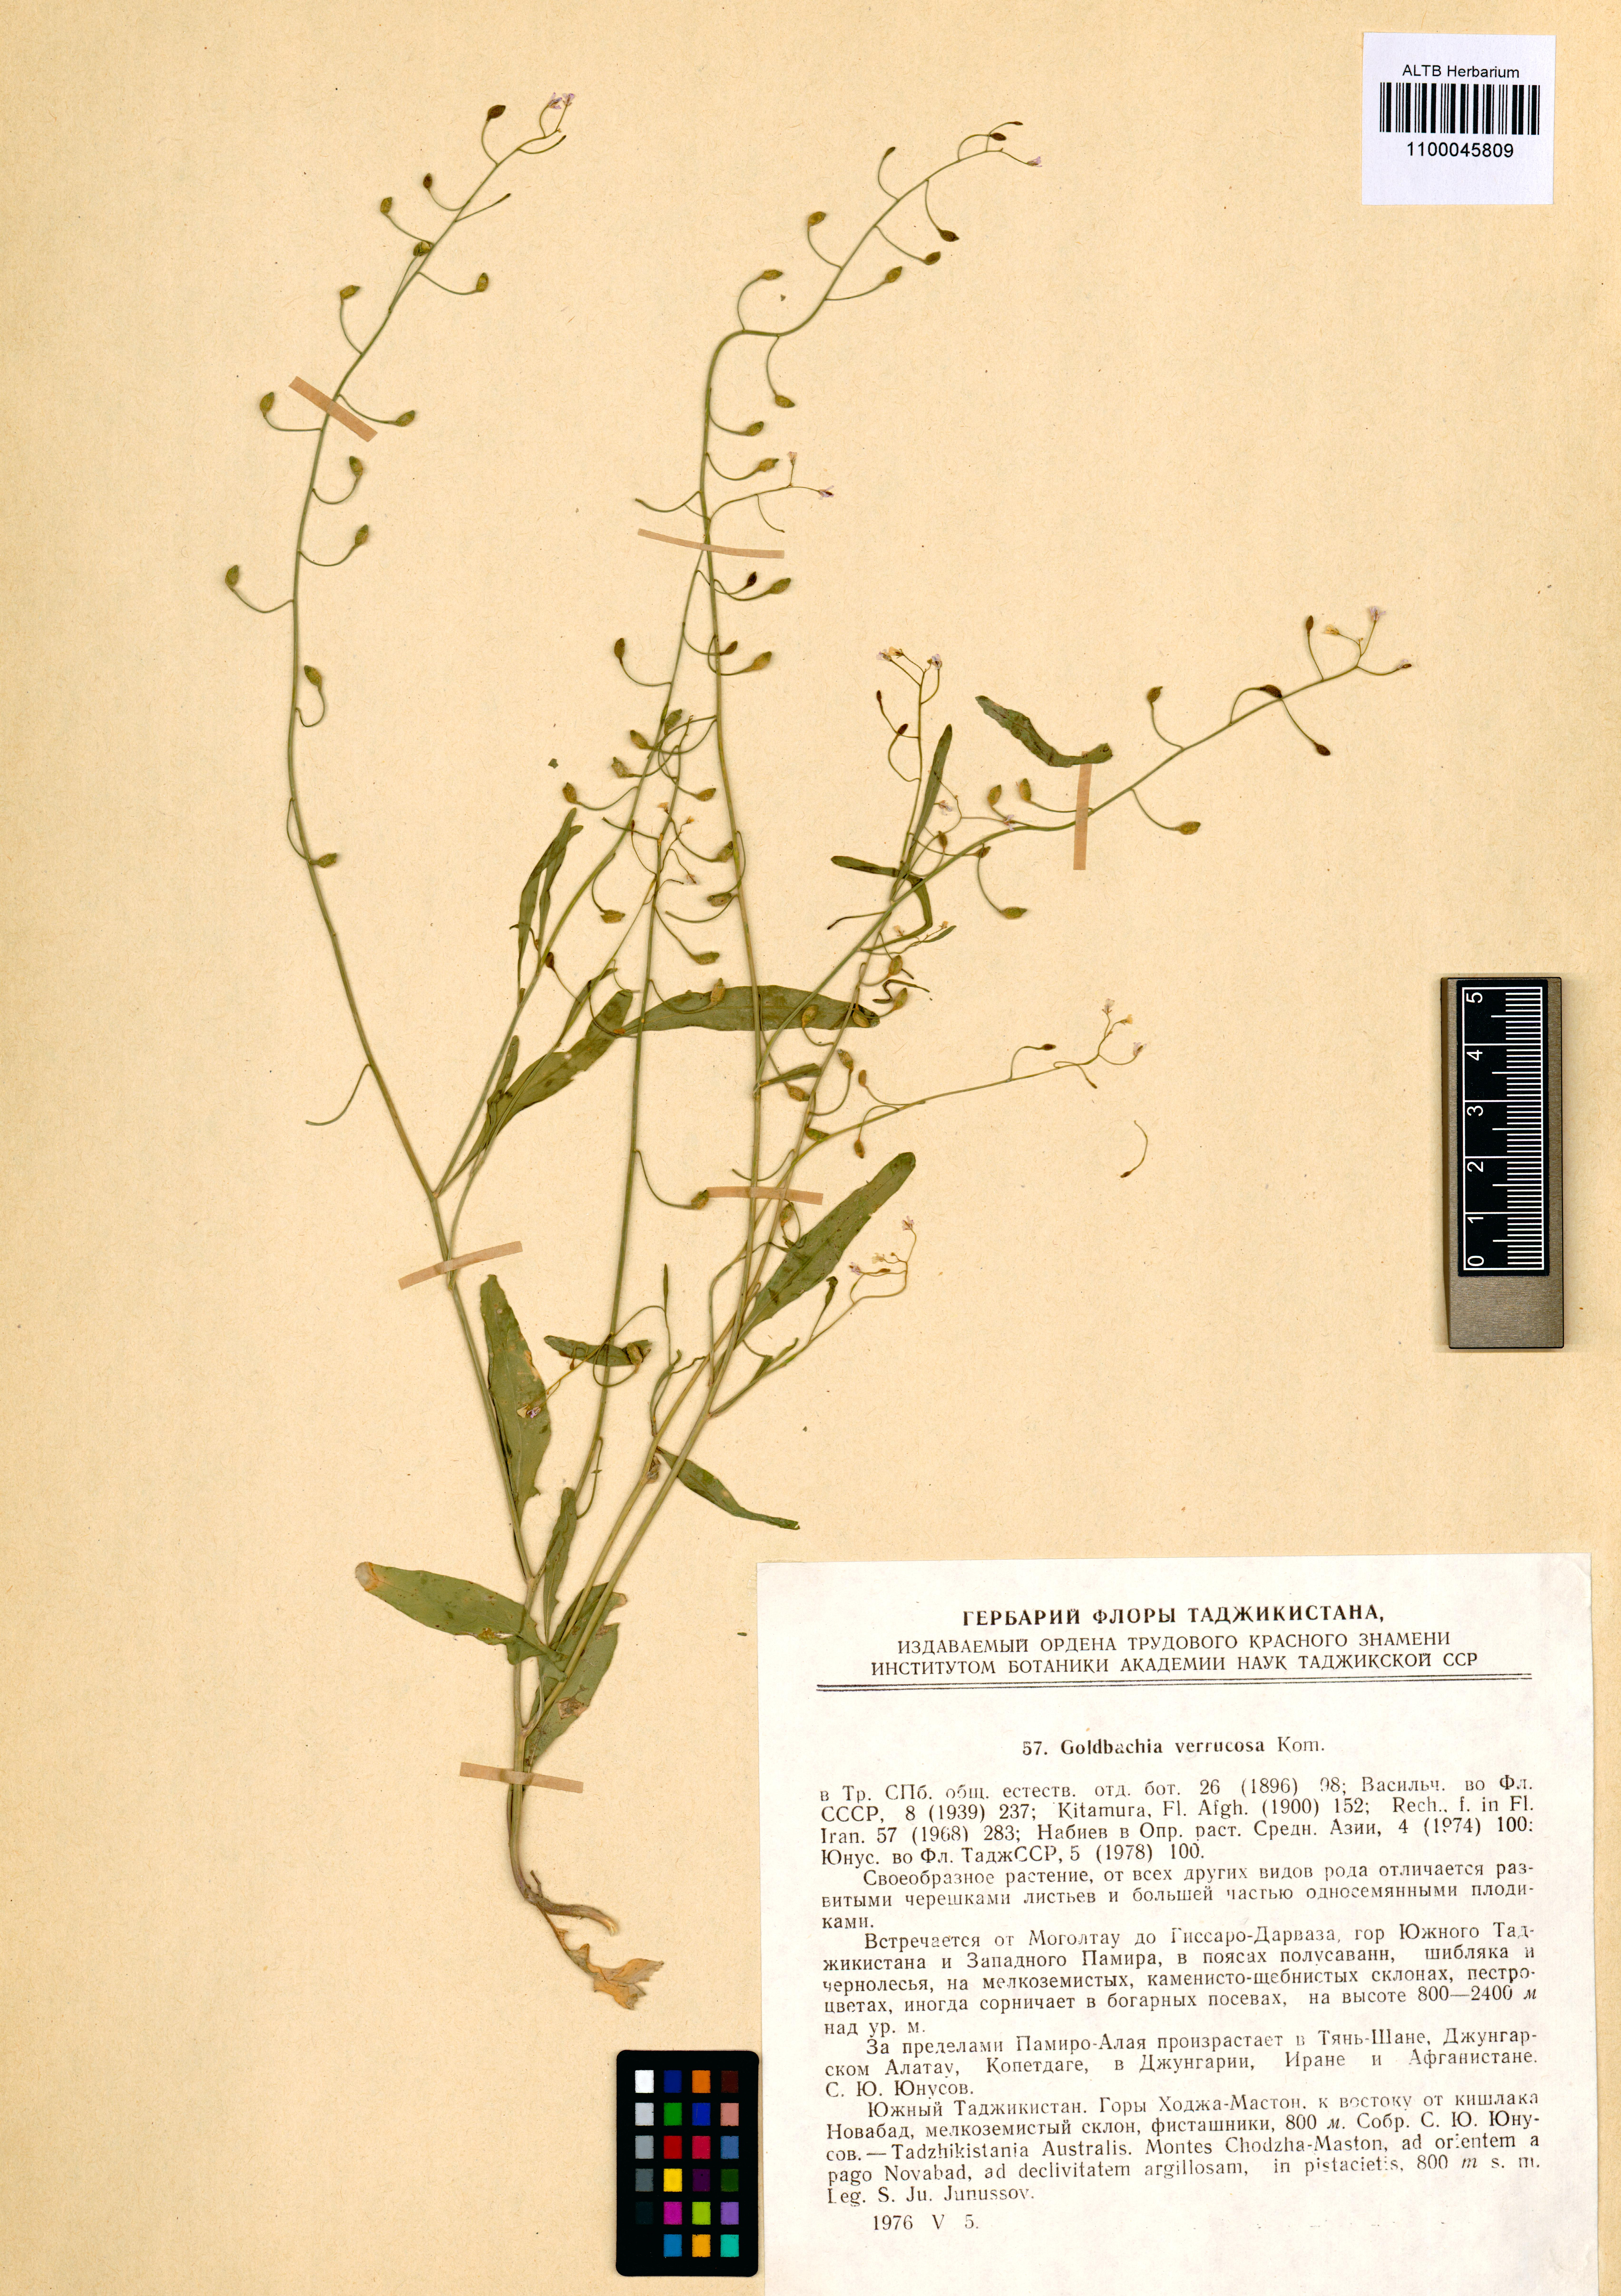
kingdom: Plantae
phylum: Tracheophyta
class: Magnoliopsida
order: Brassicales
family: Brassicaceae
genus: Goldbachia
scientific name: Goldbachia verrucosa
